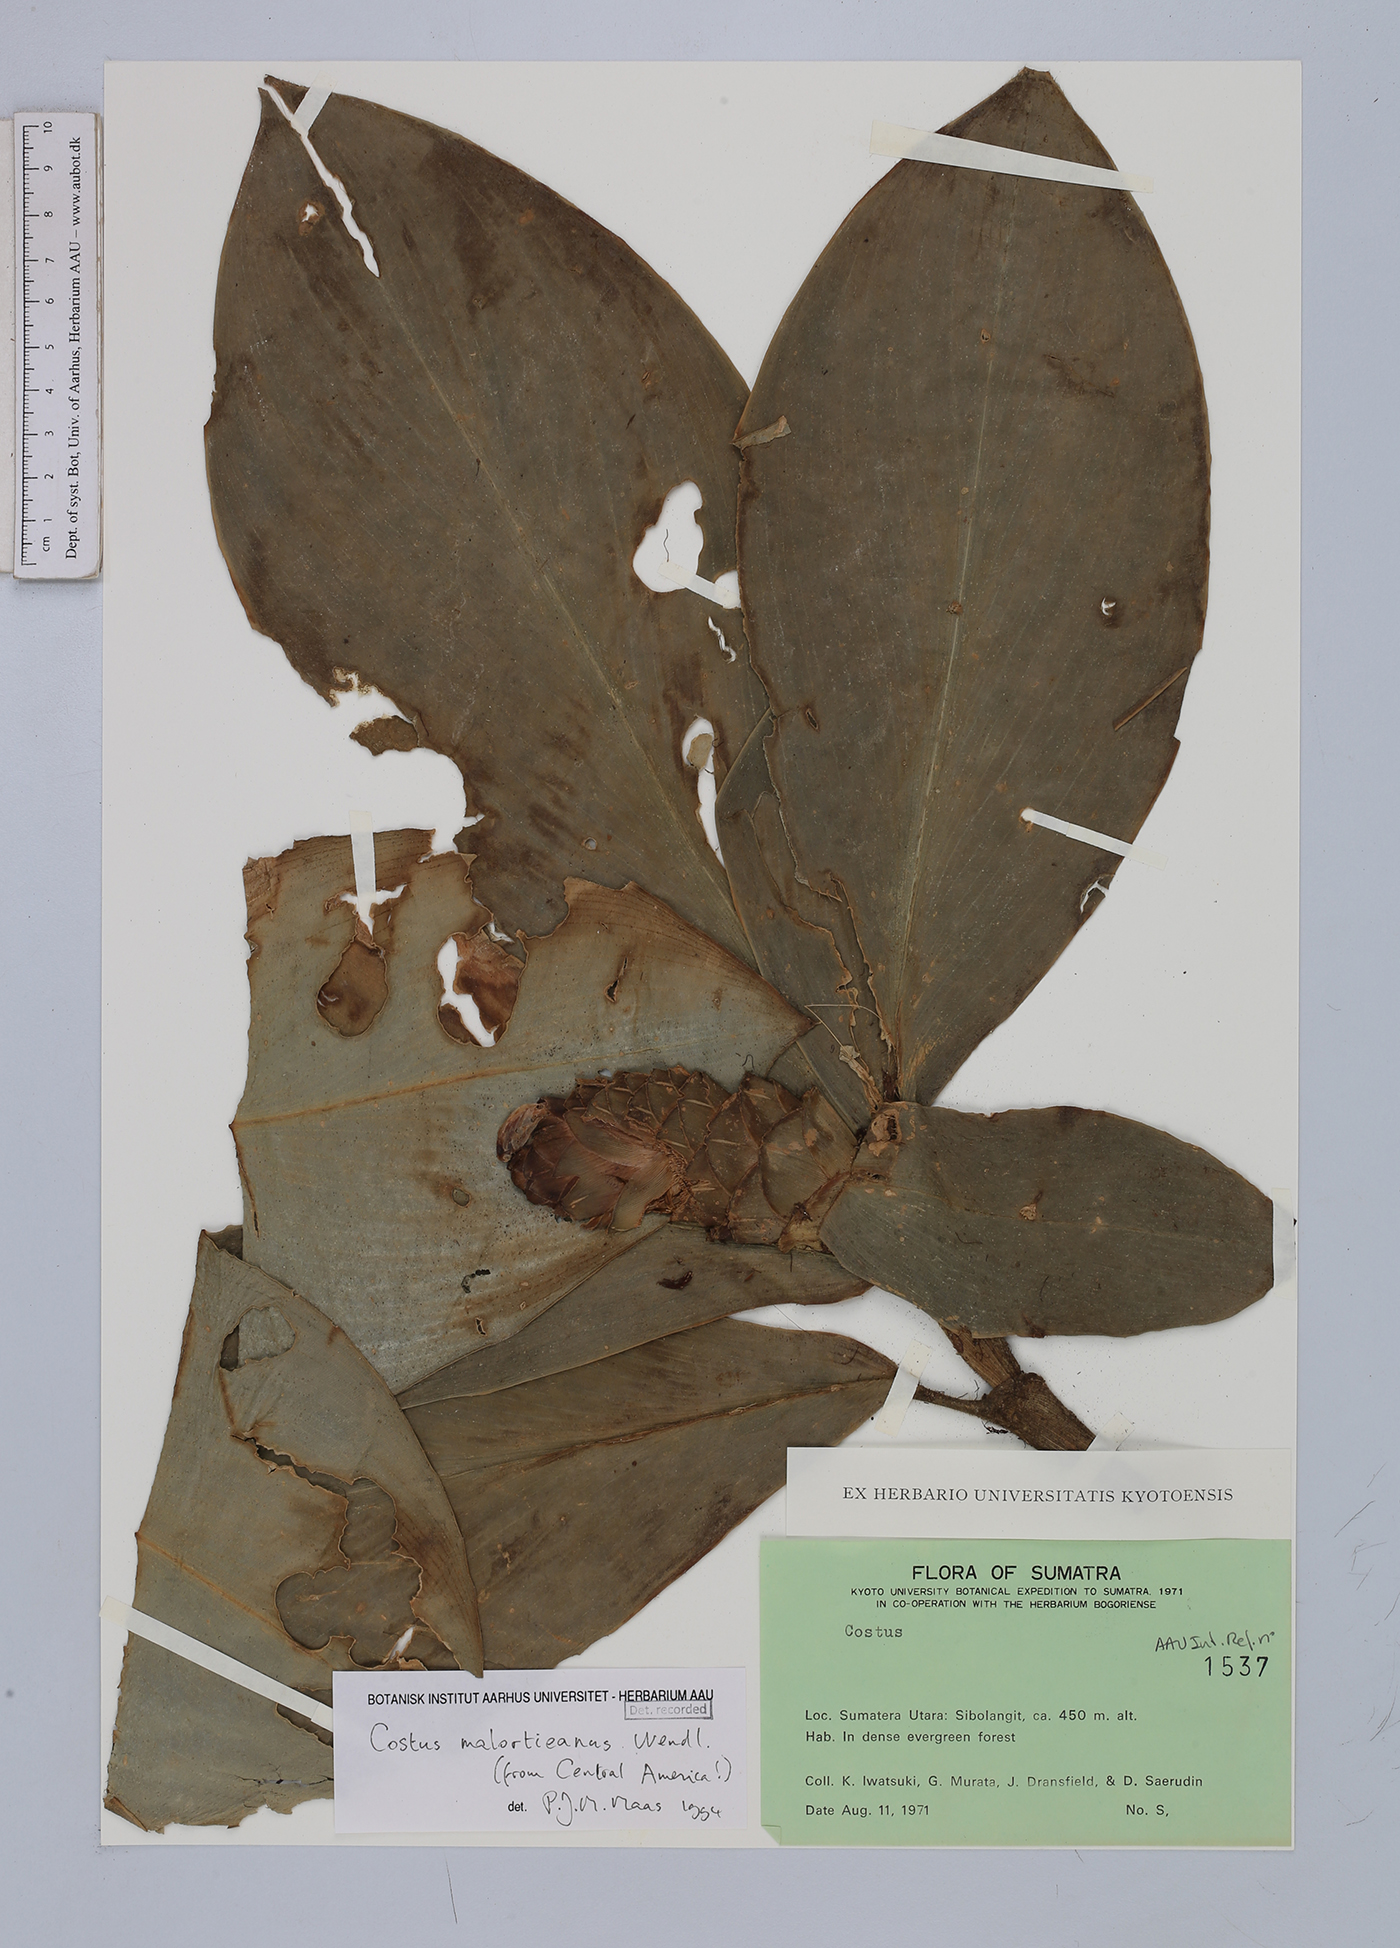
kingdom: Plantae
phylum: Tracheophyta
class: Liliopsida
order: Zingiberales
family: Costaceae
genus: Costus
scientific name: Costus elegans
